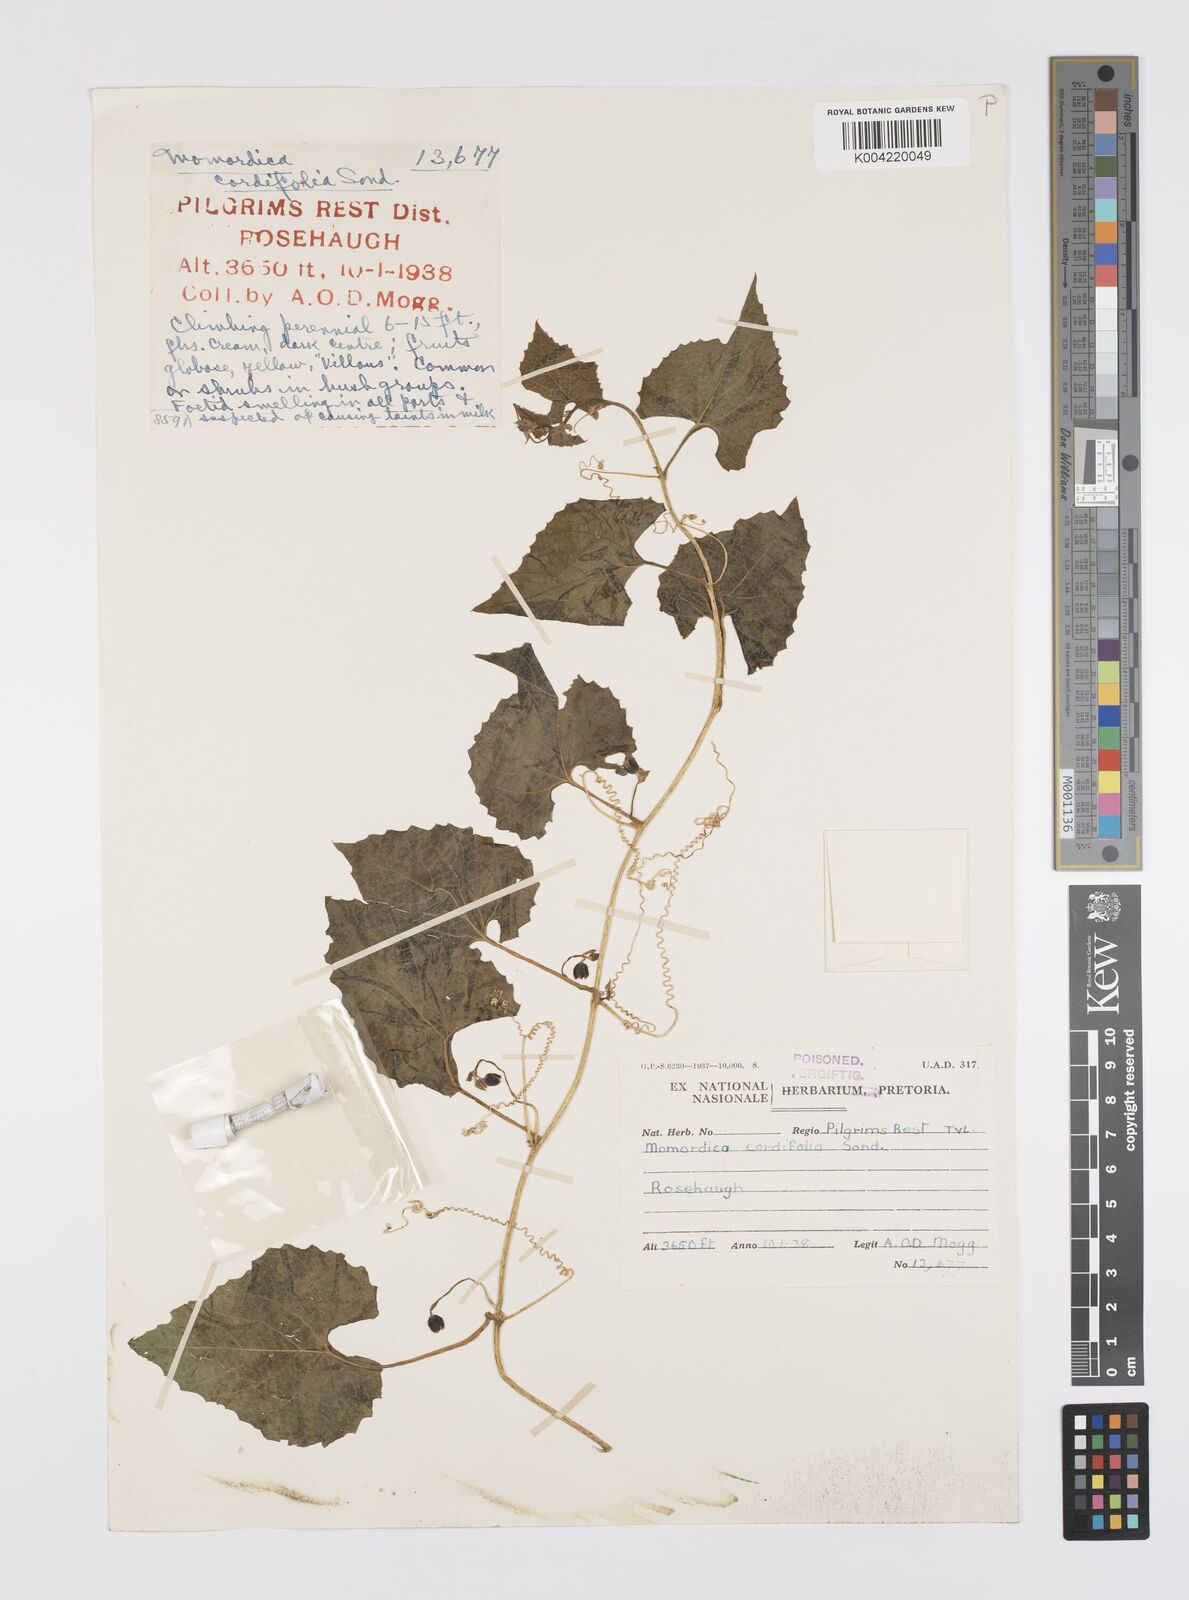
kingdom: Plantae
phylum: Tracheophyta
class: Magnoliopsida
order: Cucurbitales
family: Cucurbitaceae
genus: Momordica
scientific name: Momordica foetida
